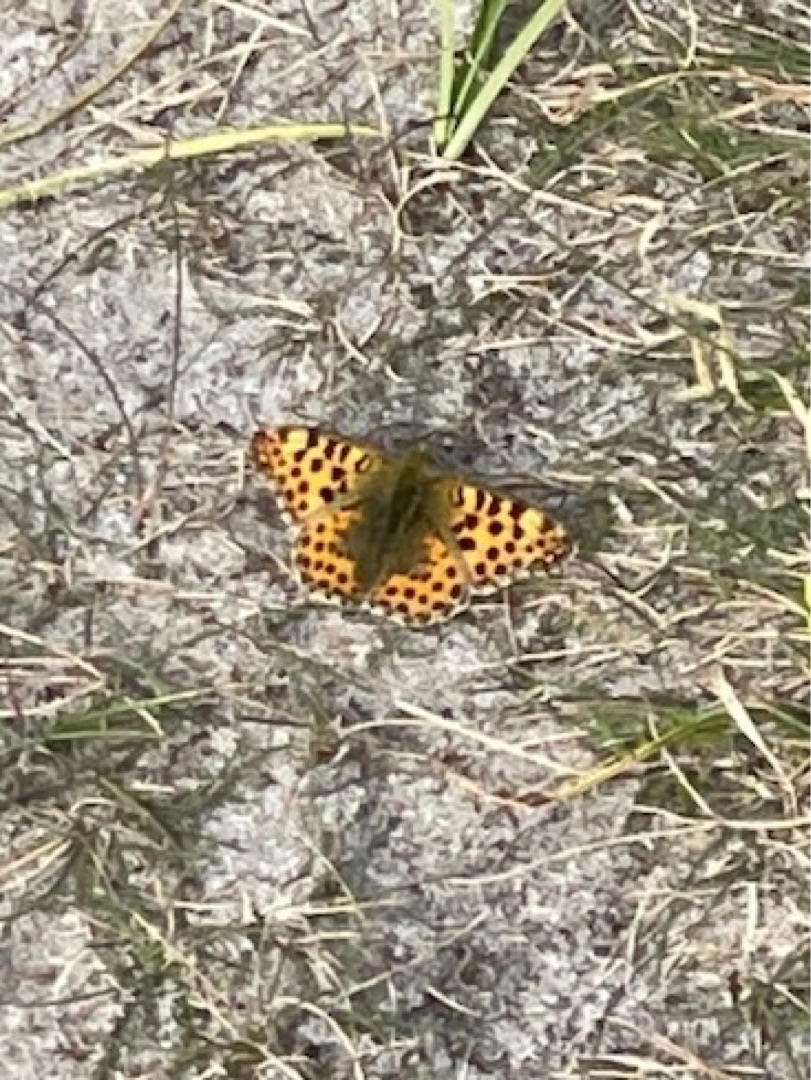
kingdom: Animalia
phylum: Arthropoda
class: Insecta
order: Lepidoptera
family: Nymphalidae
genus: Issoria
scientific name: Issoria lathonia
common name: Storplettet perlemorsommerfugl
